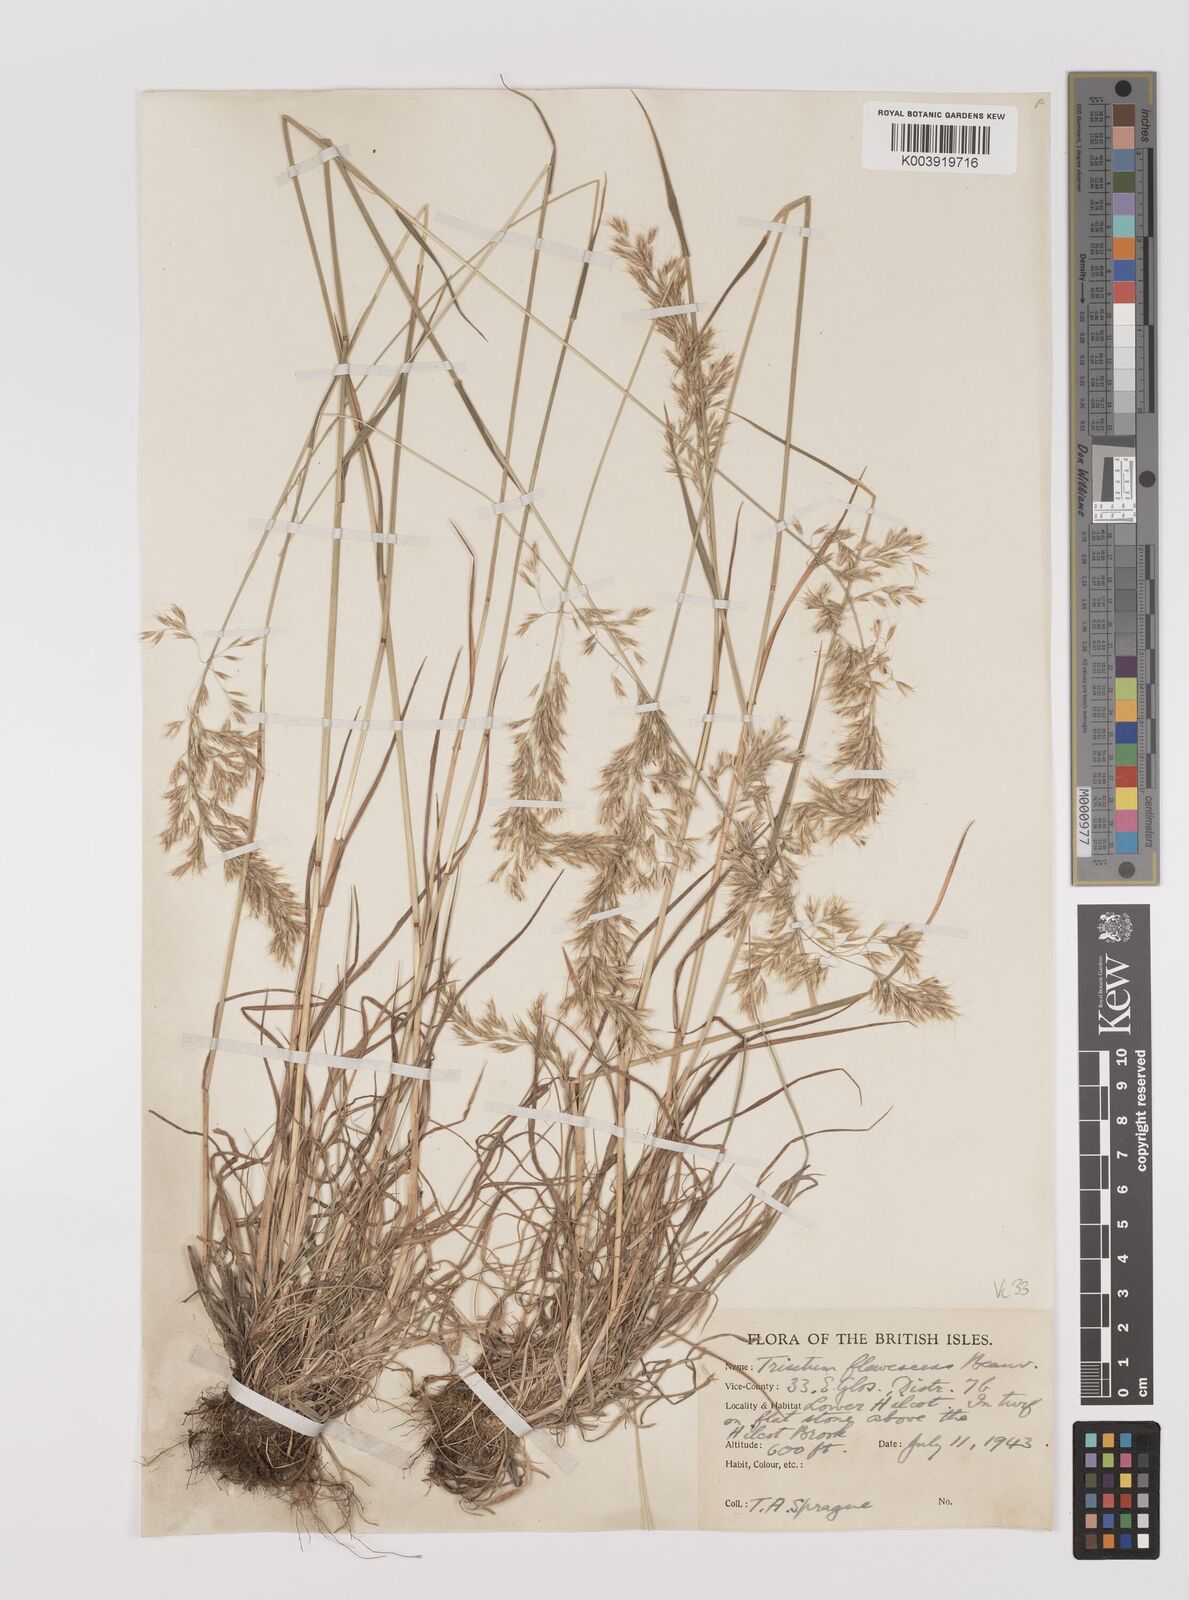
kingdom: Plantae
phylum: Tracheophyta
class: Liliopsida
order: Poales
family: Poaceae
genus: Trisetum
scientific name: Trisetum flavescens
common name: Yellow oat-grass
